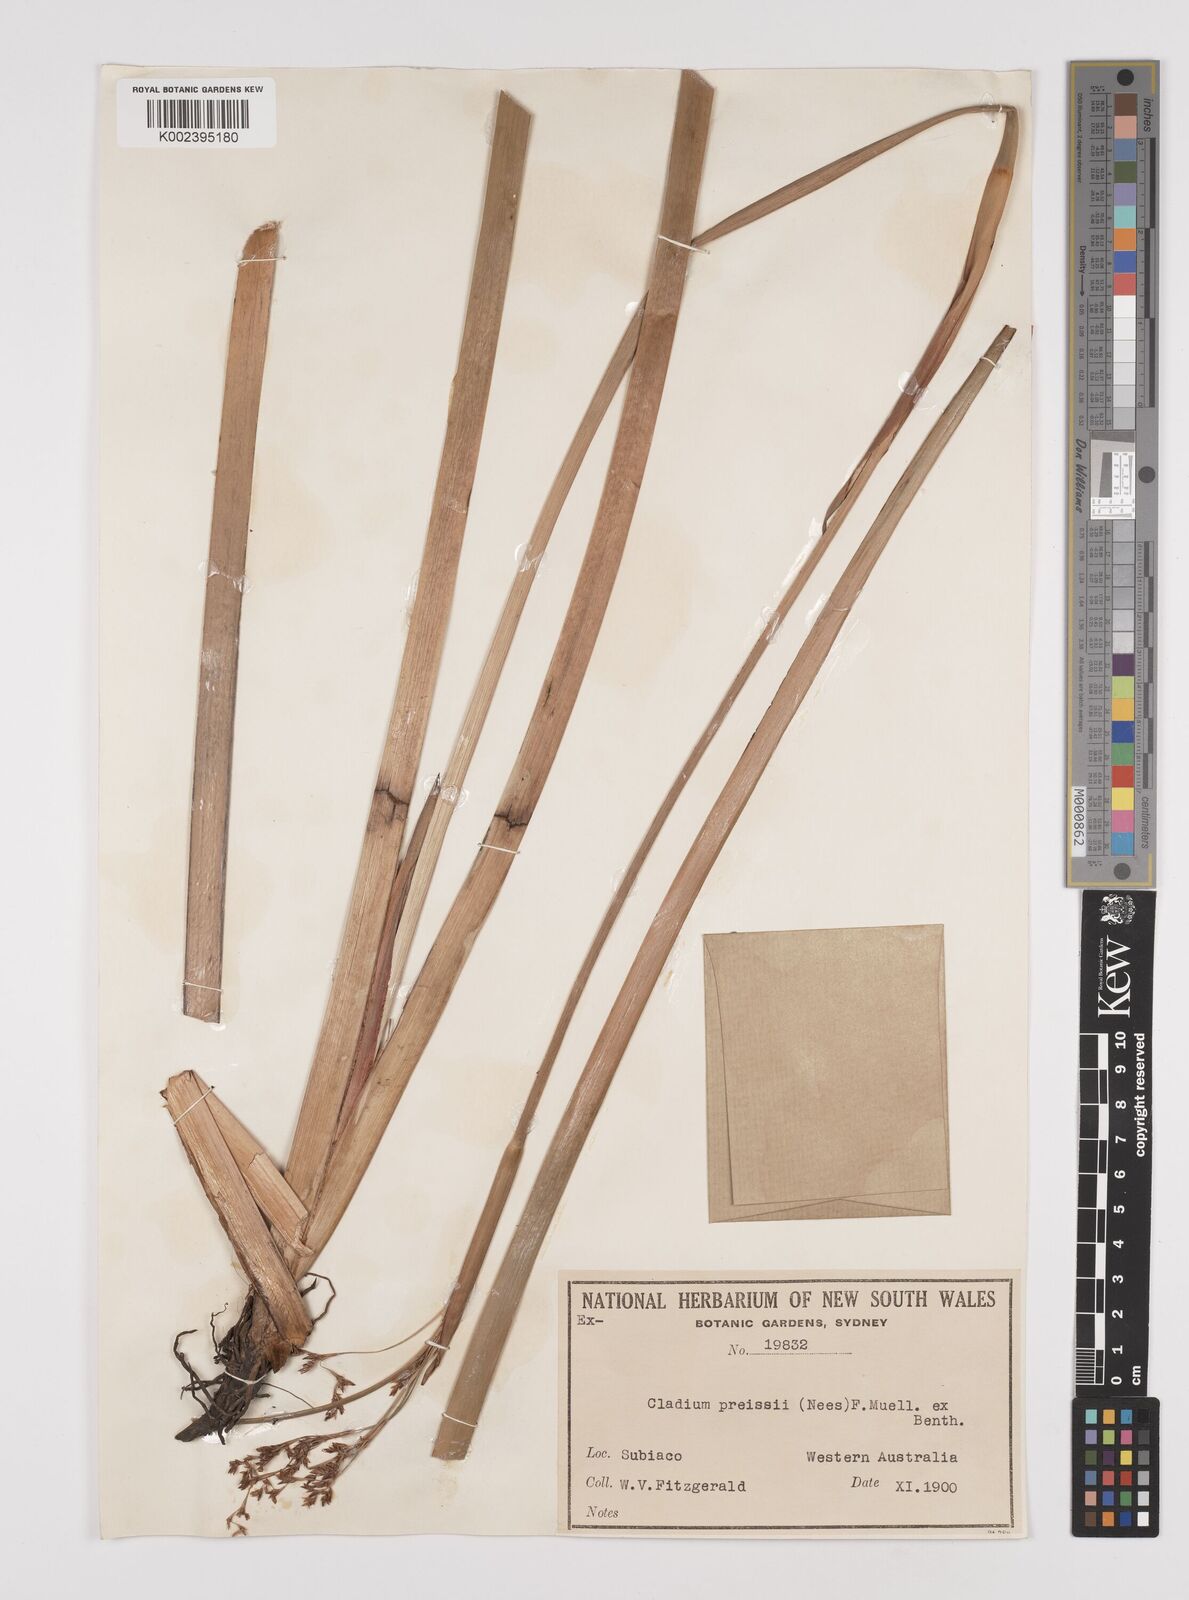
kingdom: Plantae
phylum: Tracheophyta
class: Liliopsida
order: Poales
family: Cyperaceae
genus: Machaerina
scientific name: Machaerina preissii
